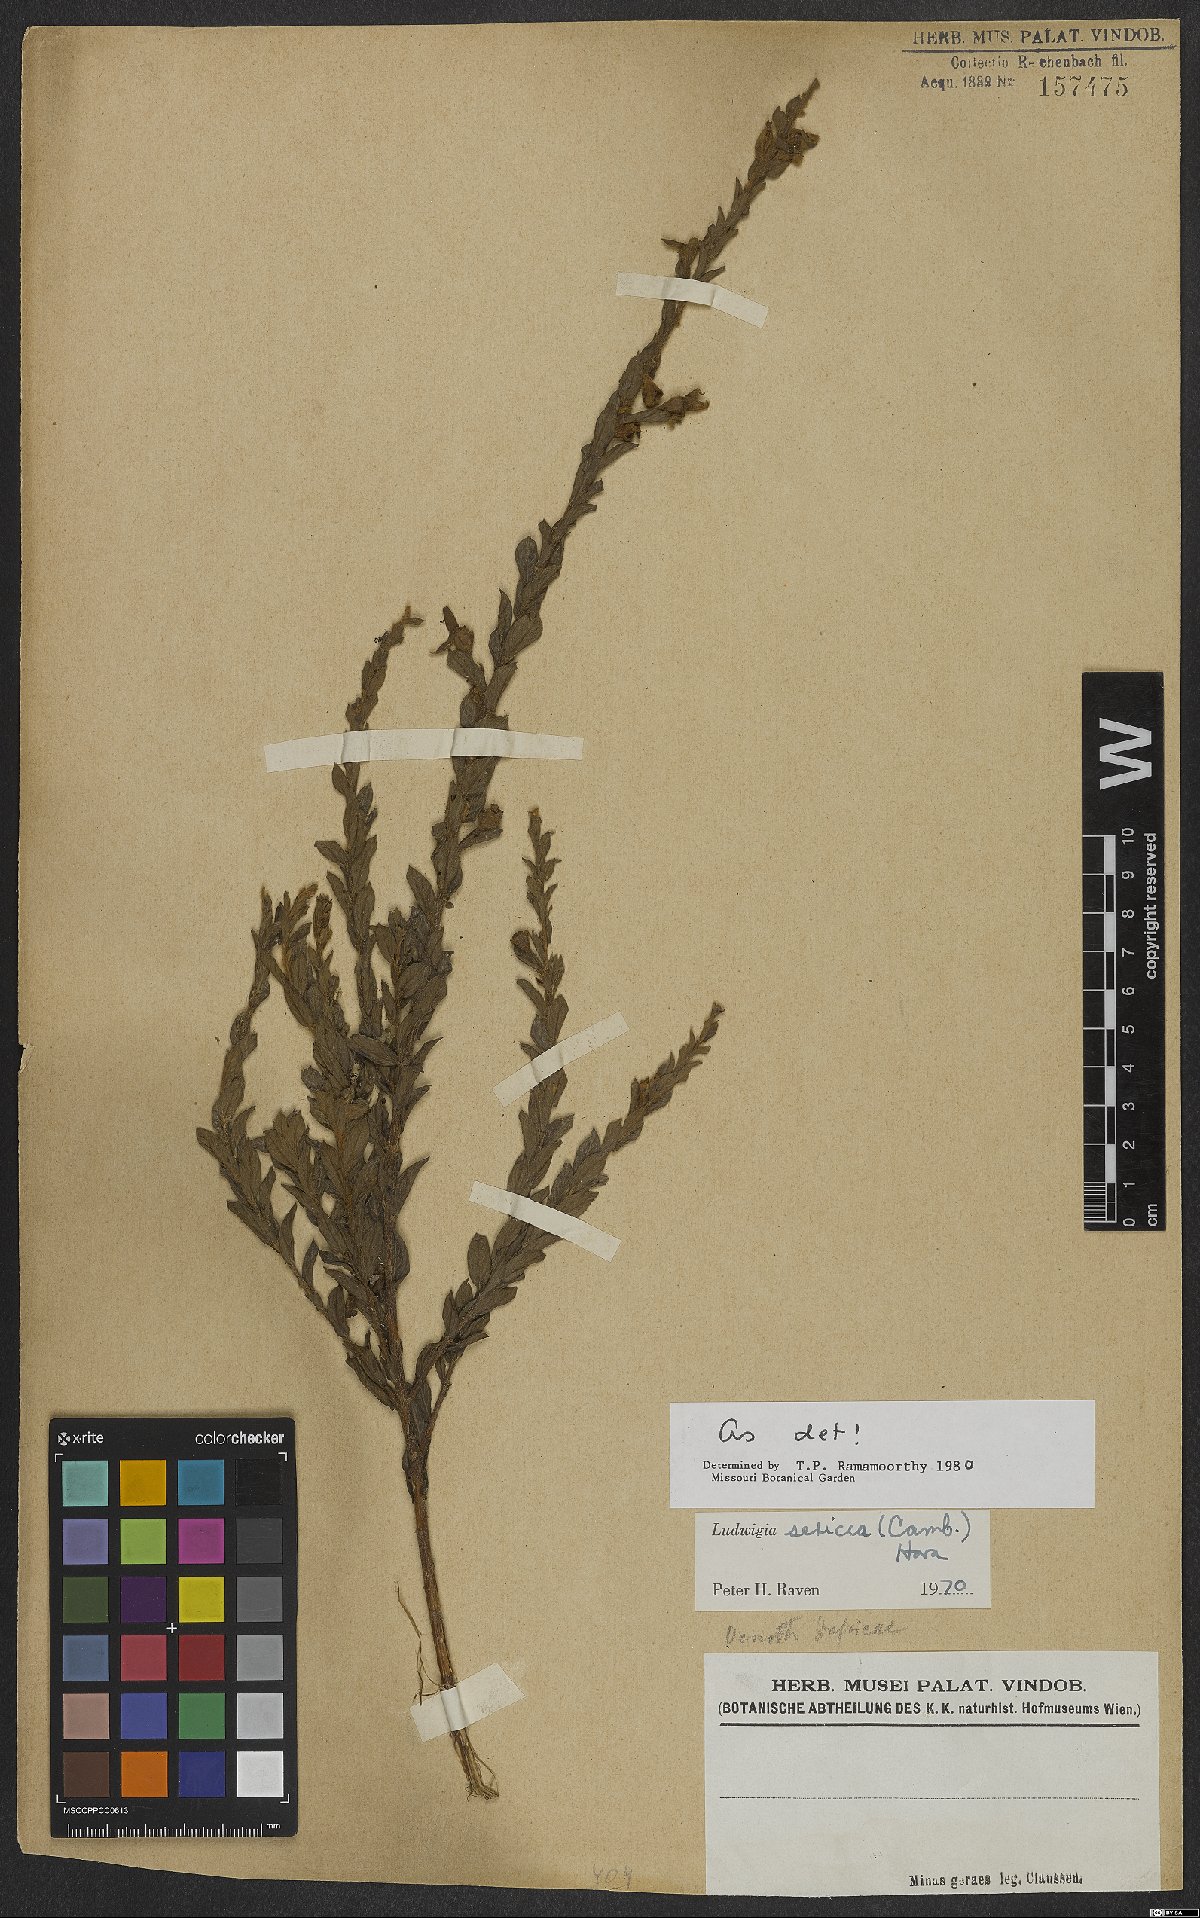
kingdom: Plantae
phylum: Tracheophyta
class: Magnoliopsida
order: Myrtales
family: Onagraceae
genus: Ludwigia
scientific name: Ludwigia sericea
